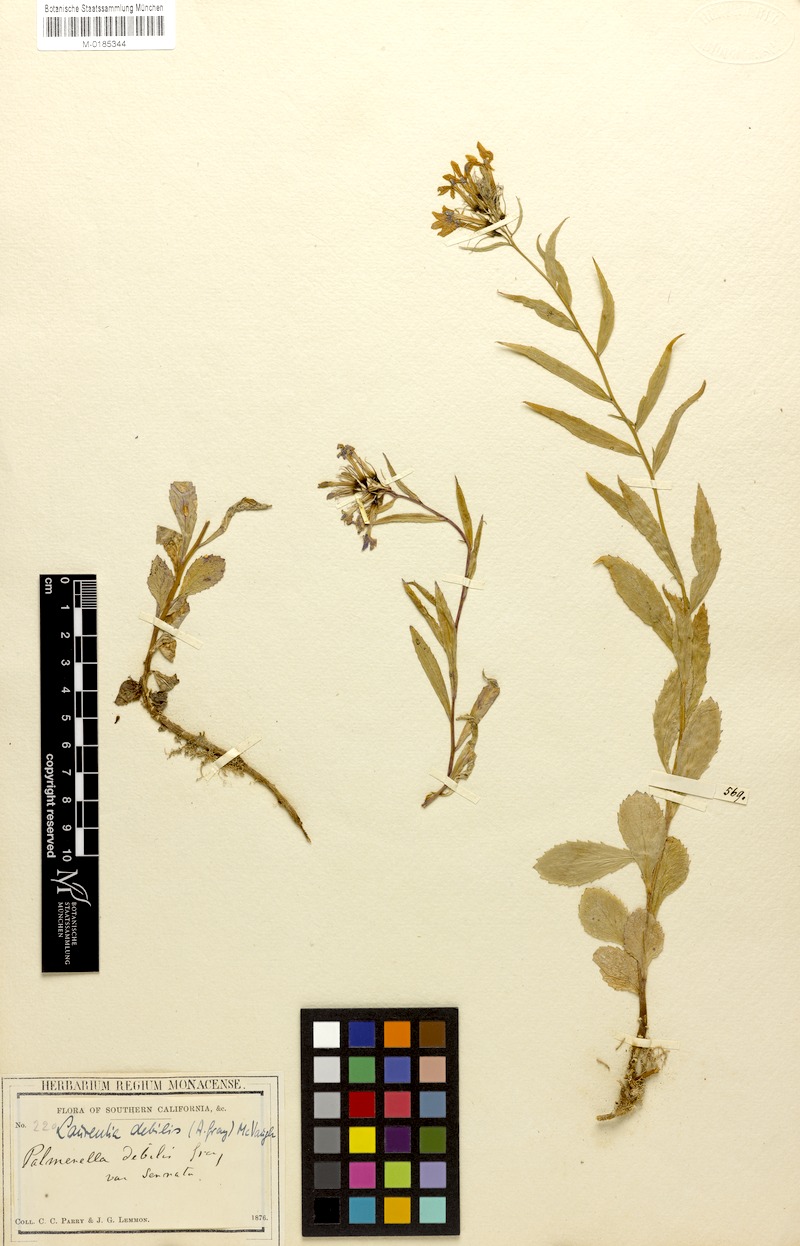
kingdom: Plantae
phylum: Tracheophyta
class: Magnoliopsida
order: Asterales
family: Campanulaceae
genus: Palmerella
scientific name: Palmerella debilis
